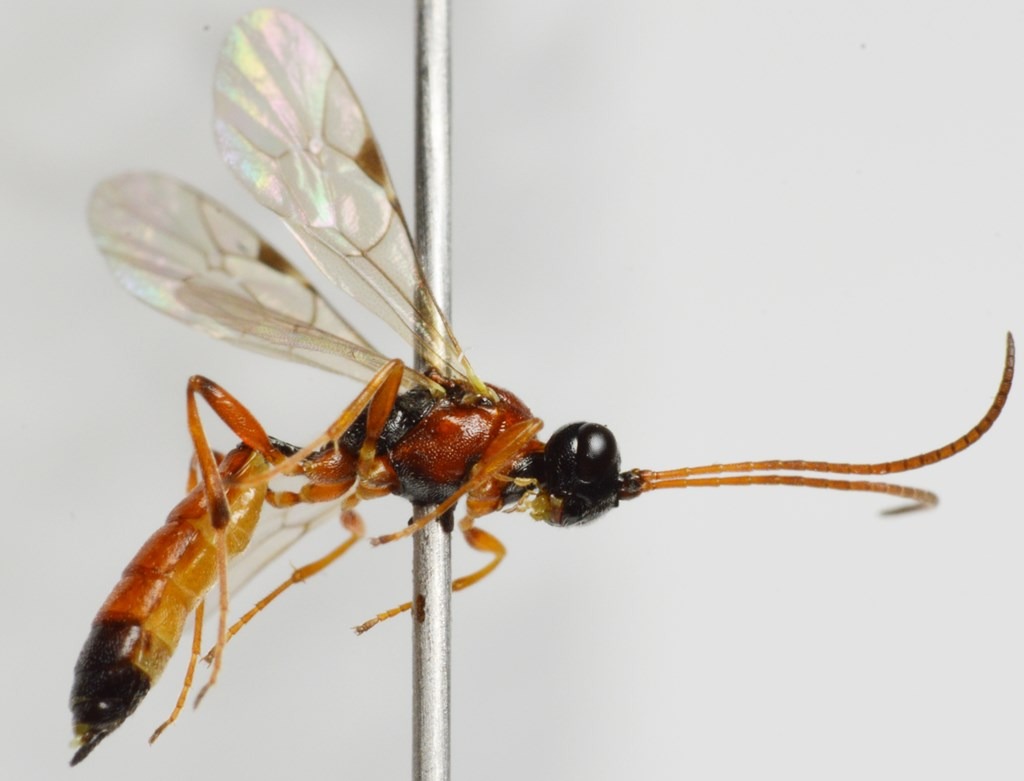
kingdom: Animalia
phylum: Arthropoda
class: Insecta
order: Hymenoptera
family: Ichneumonidae
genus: Diadromus
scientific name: Diadromus collaris
